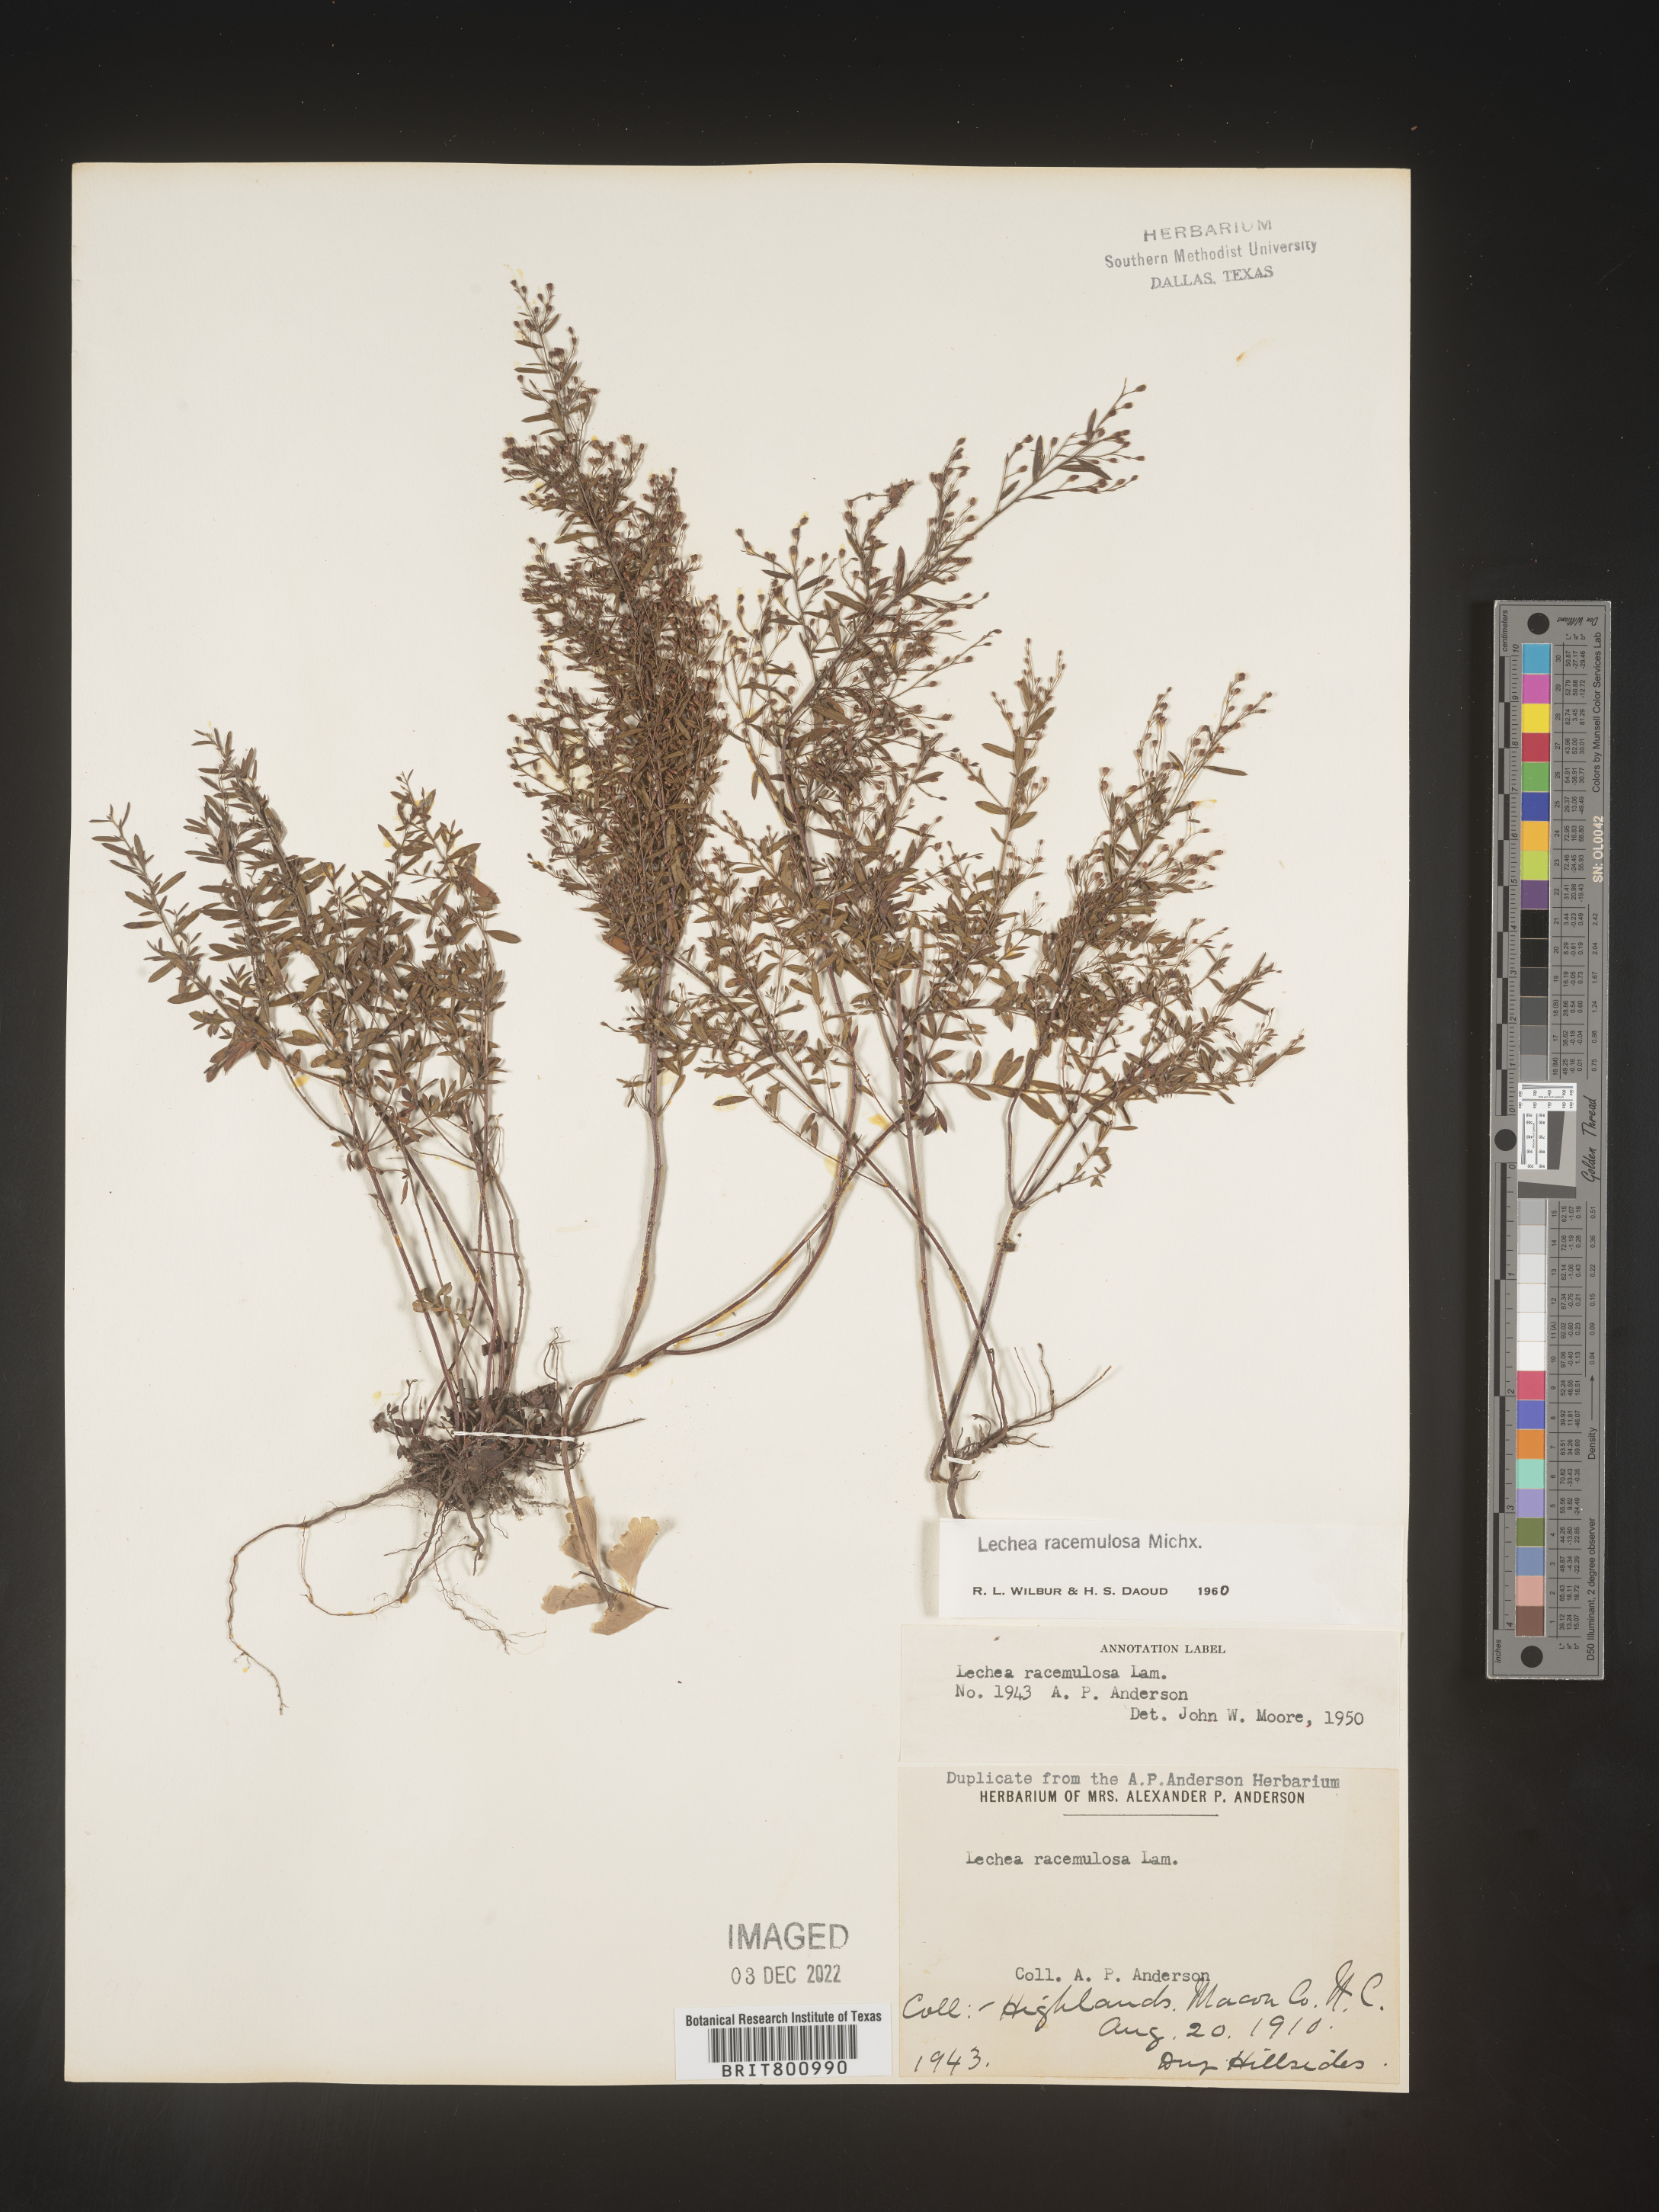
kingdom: Plantae
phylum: Tracheophyta
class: Magnoliopsida
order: Malvales
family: Cistaceae
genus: Lechea
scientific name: Lechea racemulosa
